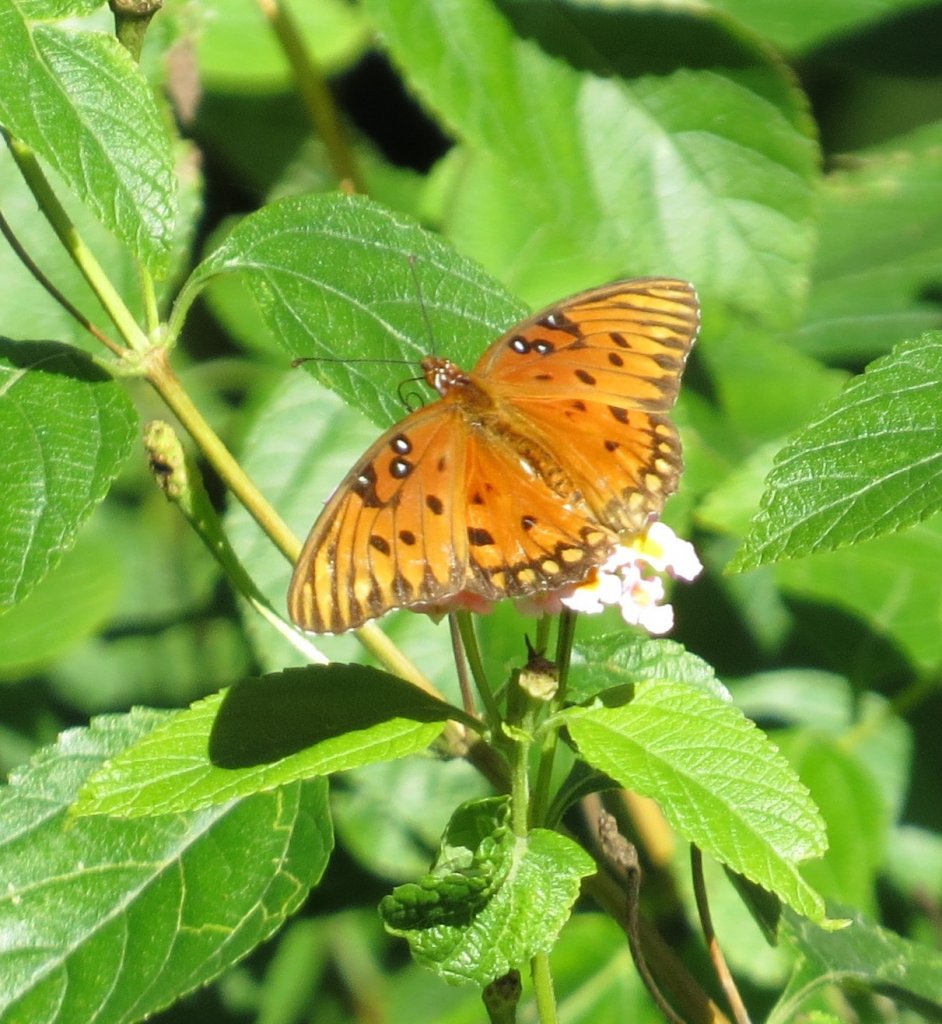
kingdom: Animalia
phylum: Arthropoda
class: Insecta
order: Lepidoptera
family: Nymphalidae
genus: Dione
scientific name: Dione vanillae
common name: Gulf Fritillary
